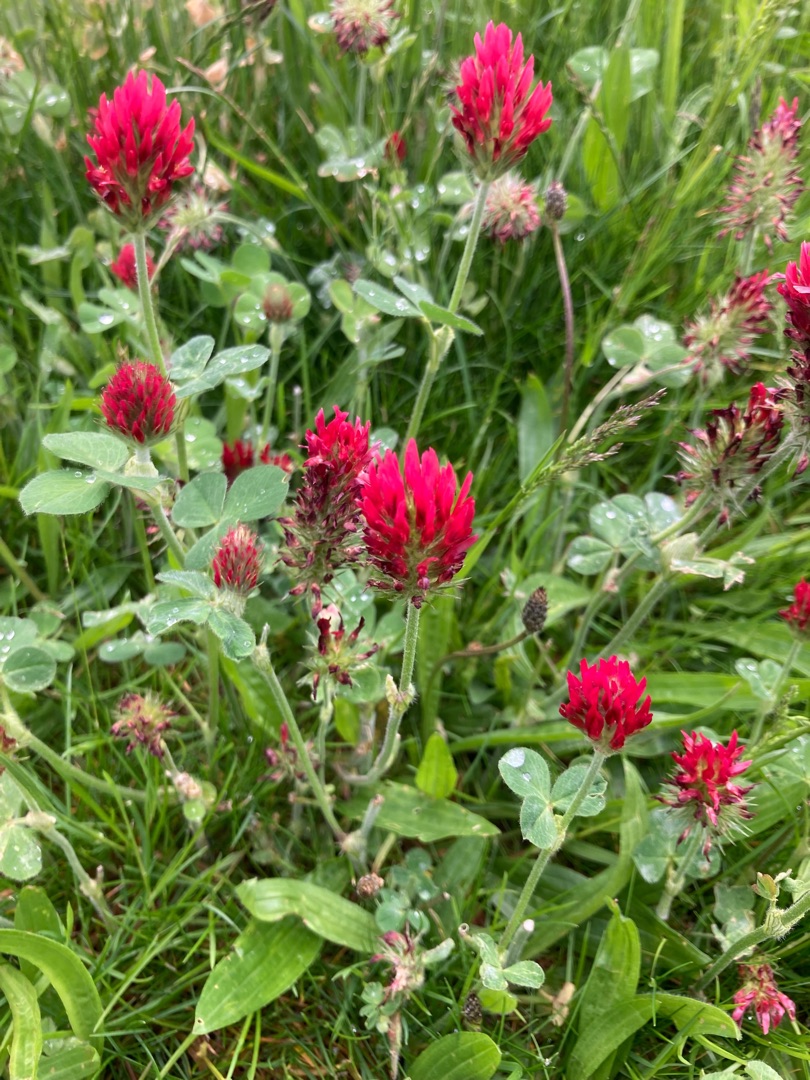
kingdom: Plantae
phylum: Tracheophyta
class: Magnoliopsida
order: Fabales
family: Fabaceae
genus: Trifolium
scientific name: Trifolium incarnatum
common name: Blod-kløver
